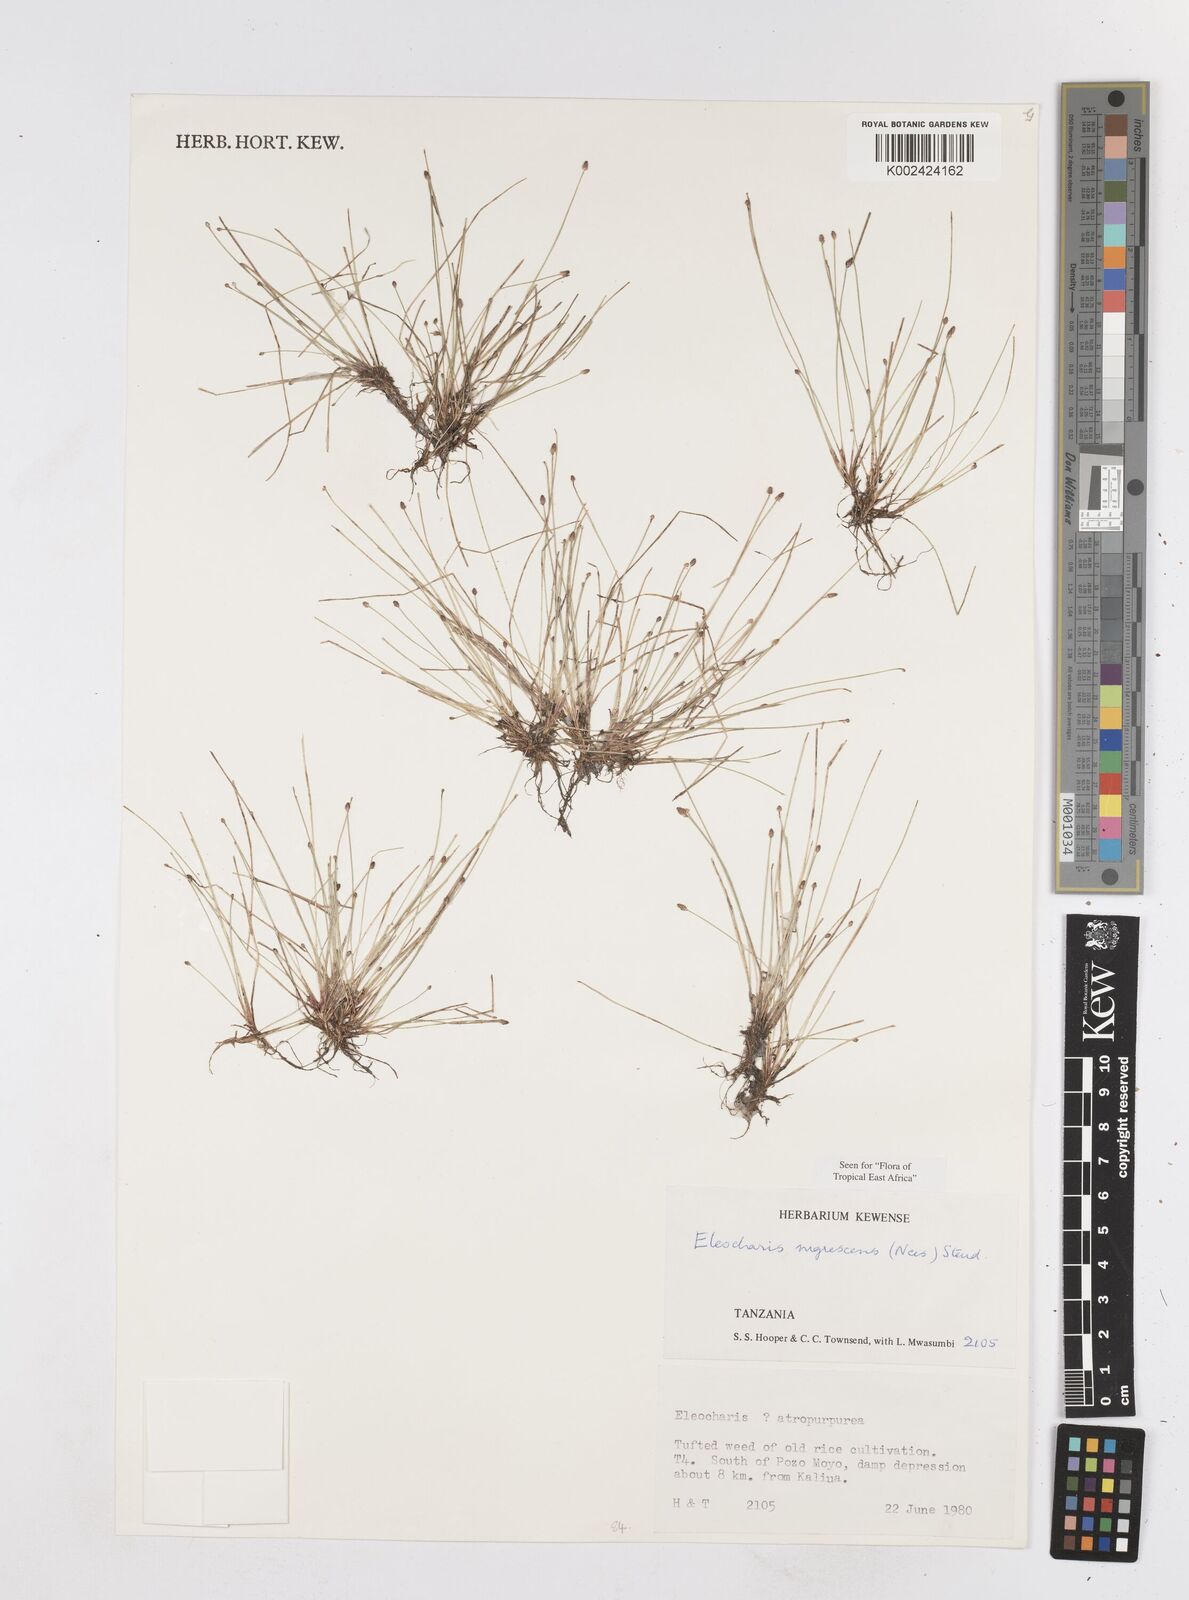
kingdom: Plantae
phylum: Tracheophyta
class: Liliopsida
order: Poales
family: Cyperaceae
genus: Eleocharis
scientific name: Eleocharis nigrescens
